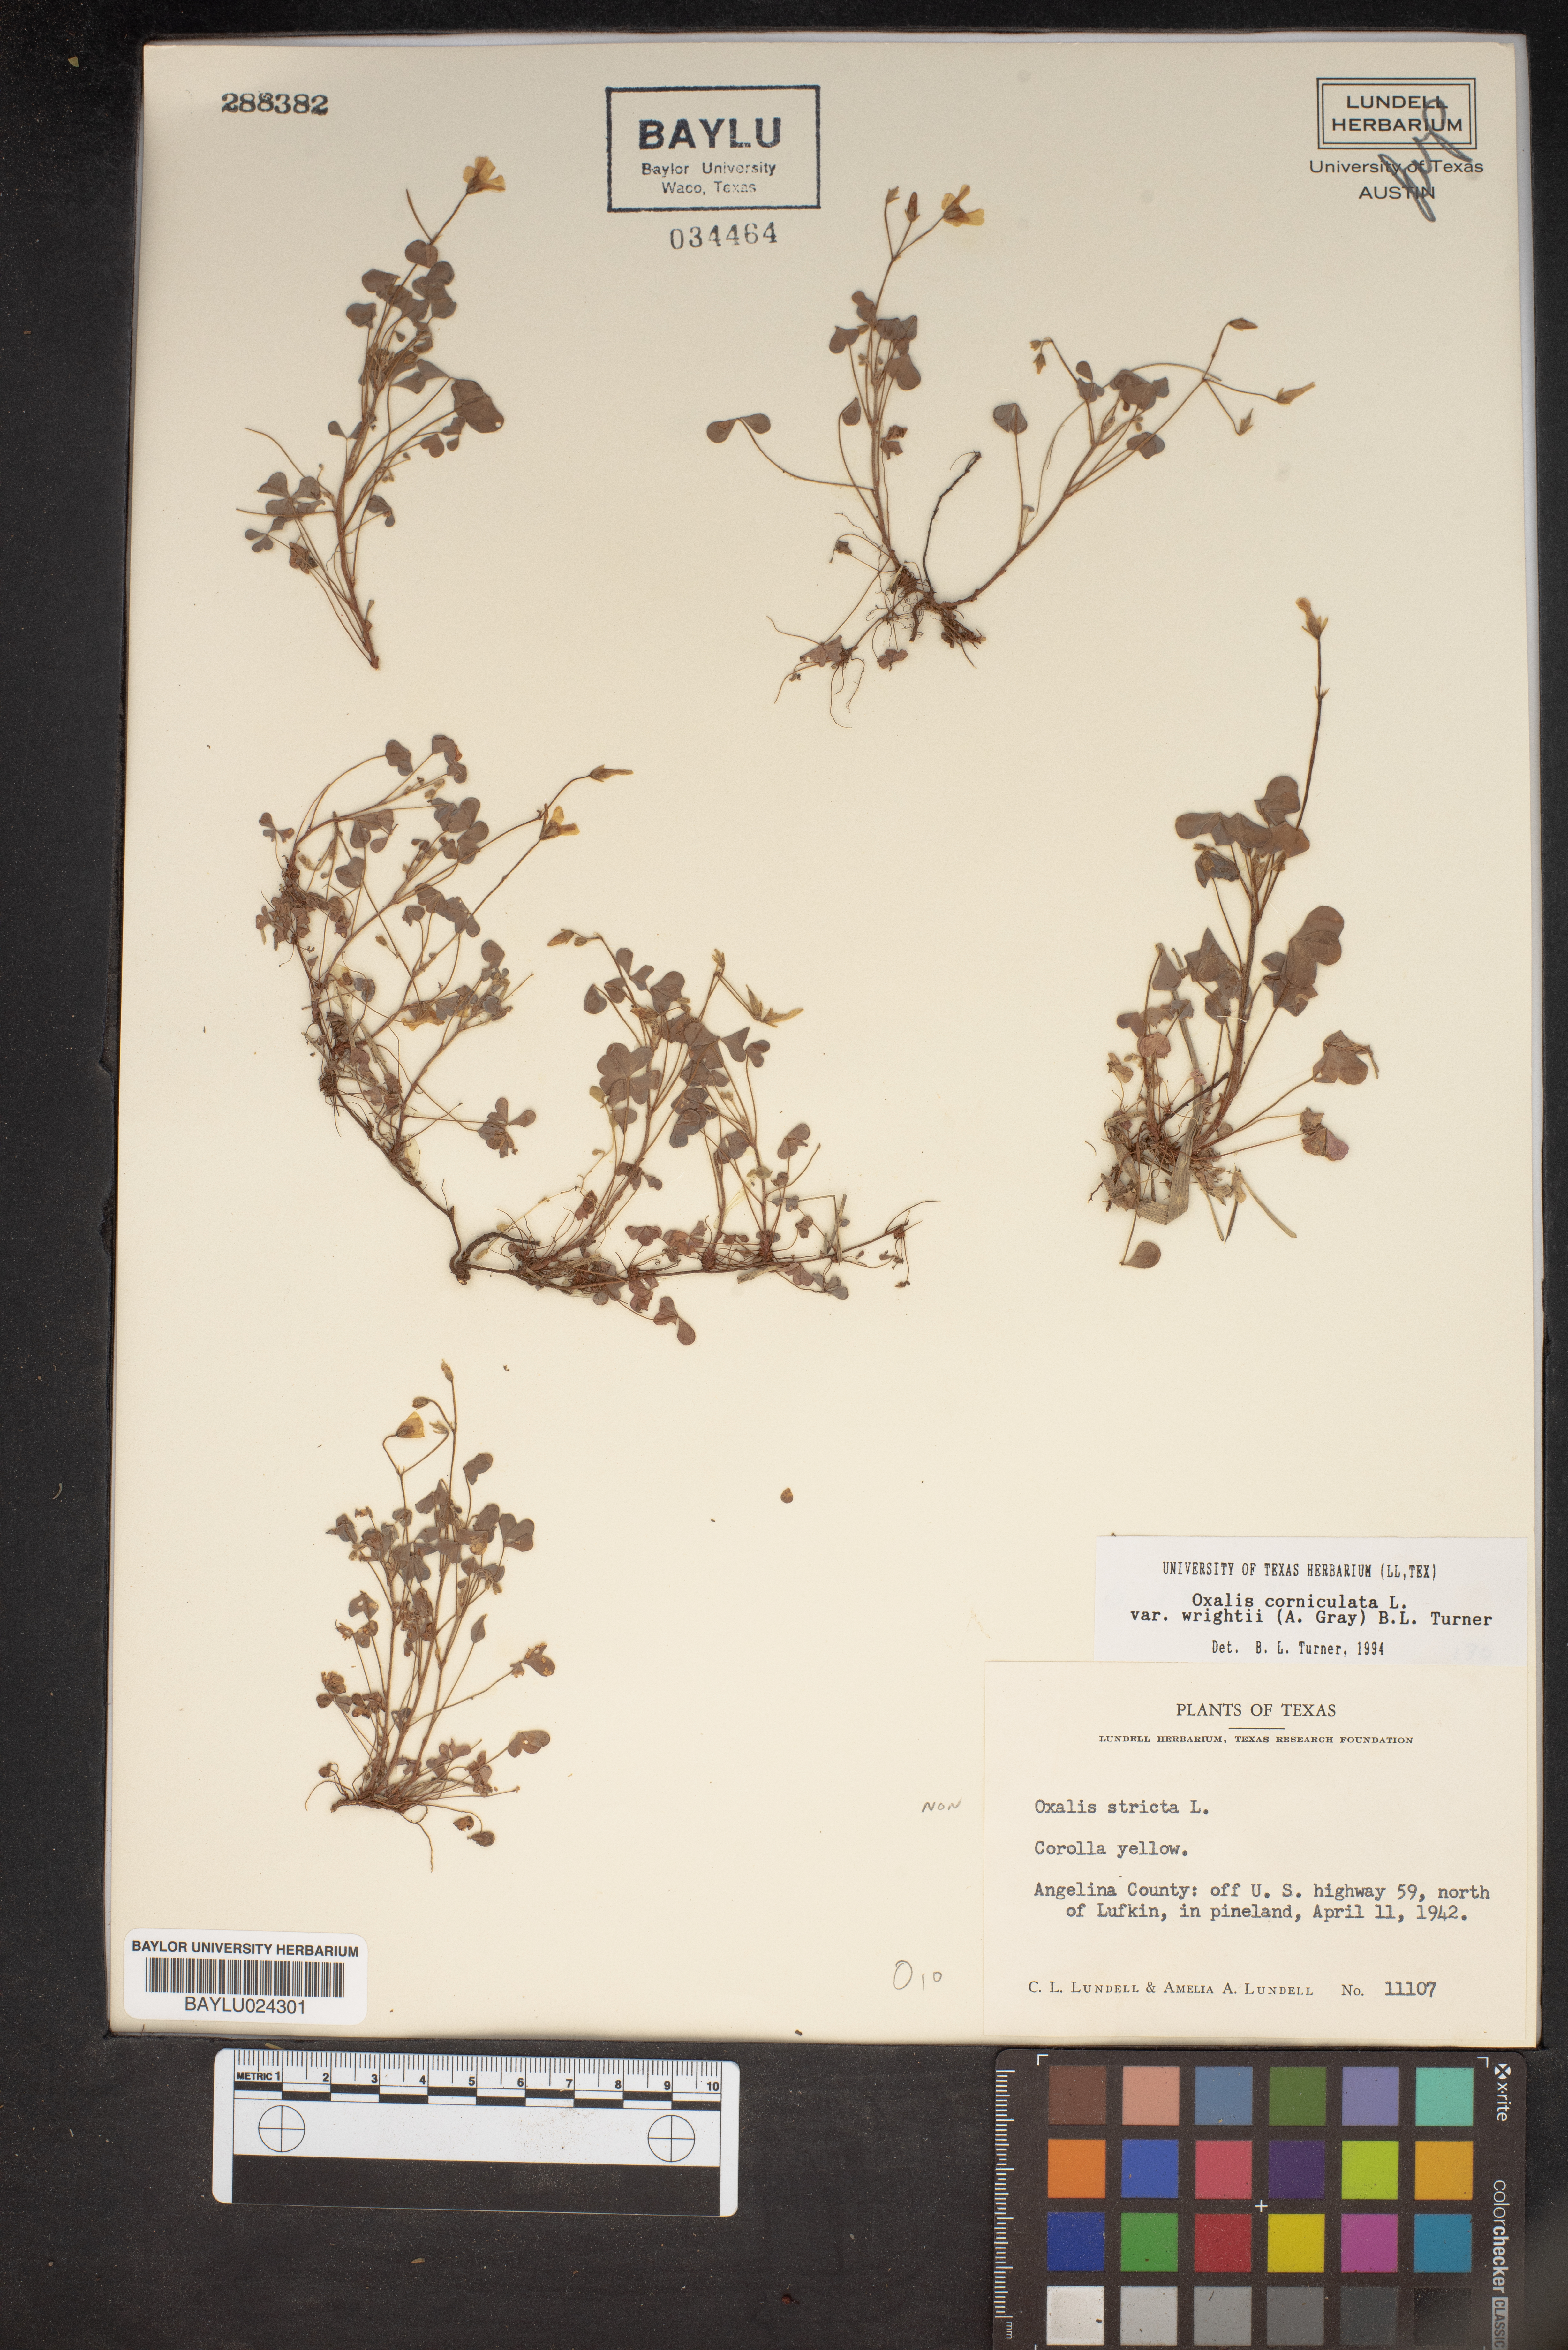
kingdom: Plantae
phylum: Tracheophyta
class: Magnoliopsida
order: Oxalidales
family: Oxalidaceae
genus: Oxalis
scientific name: Oxalis stricta
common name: Upright yellow-sorrel
